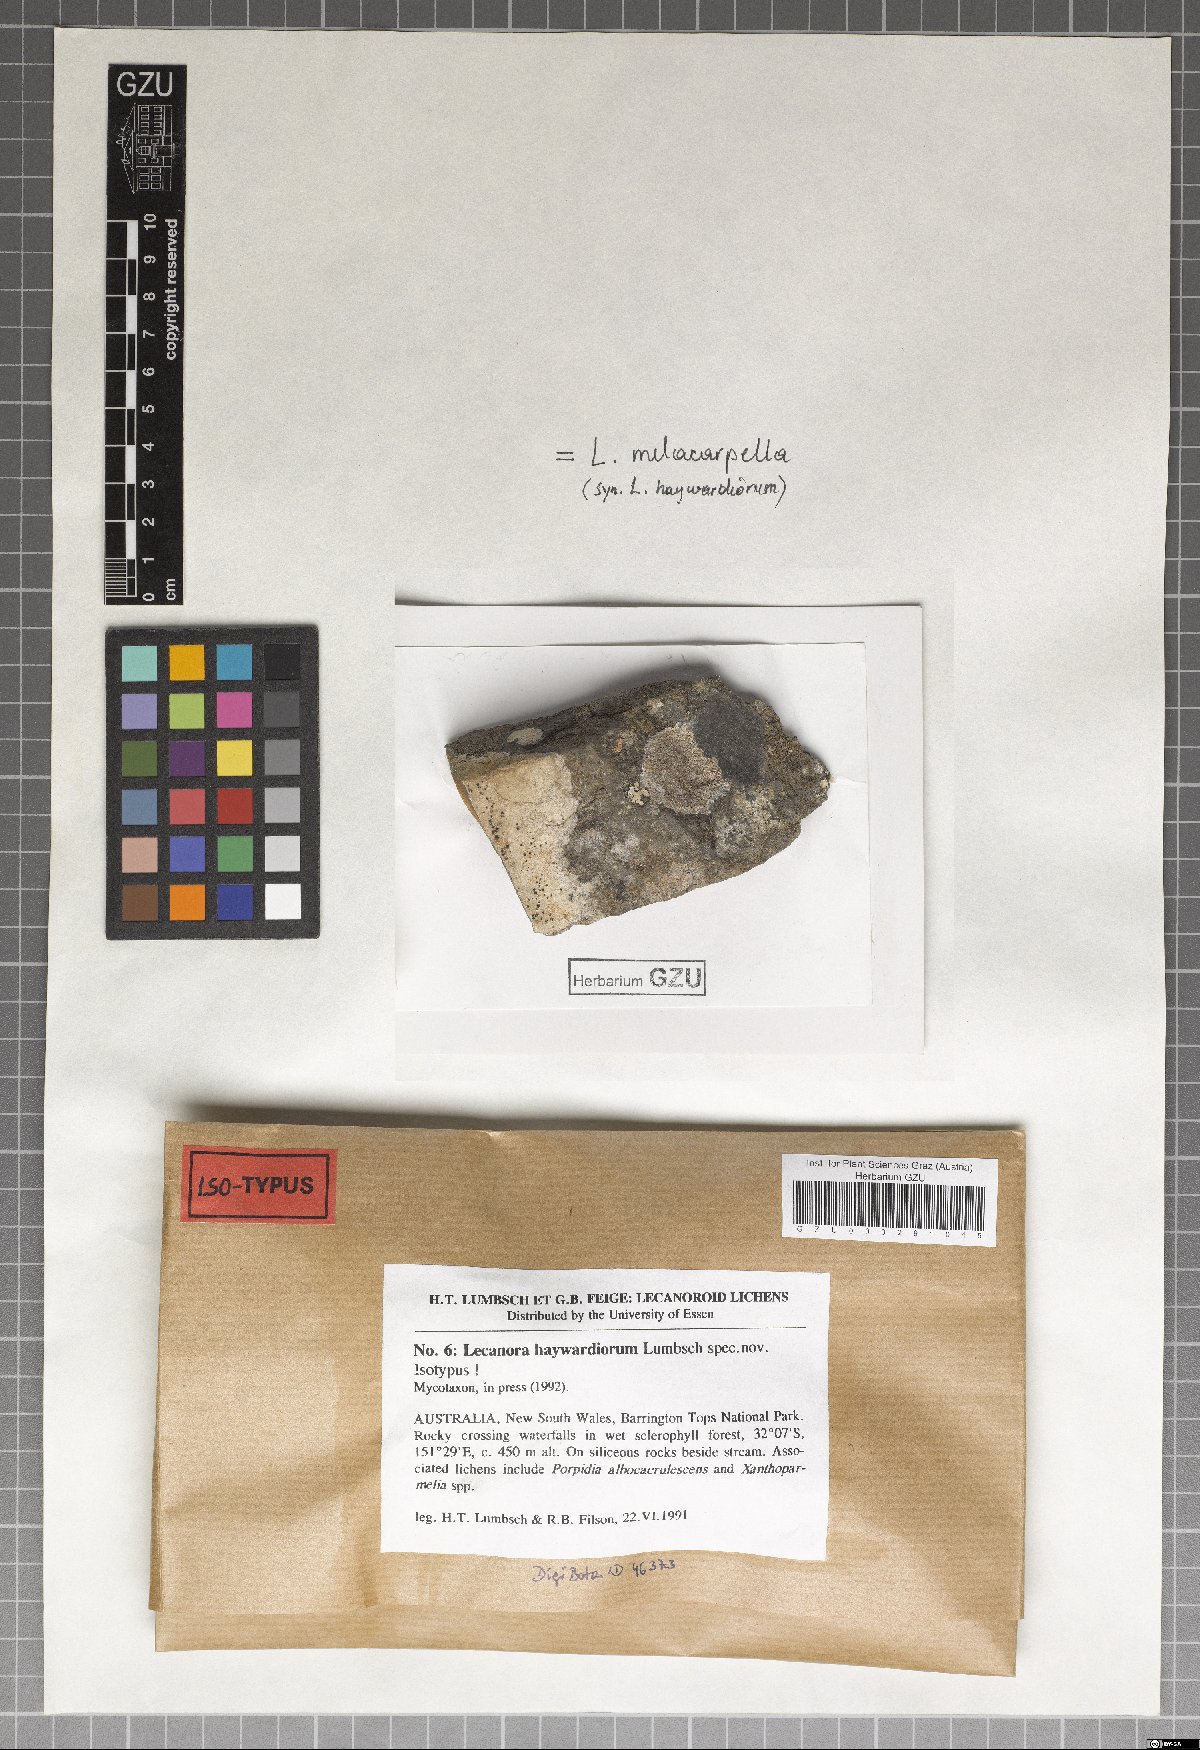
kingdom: Fungi
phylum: Ascomycota
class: Lecanoromycetes
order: Lecanorales
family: Lecanoraceae
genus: Lecanora
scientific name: Lecanora melacarpella
